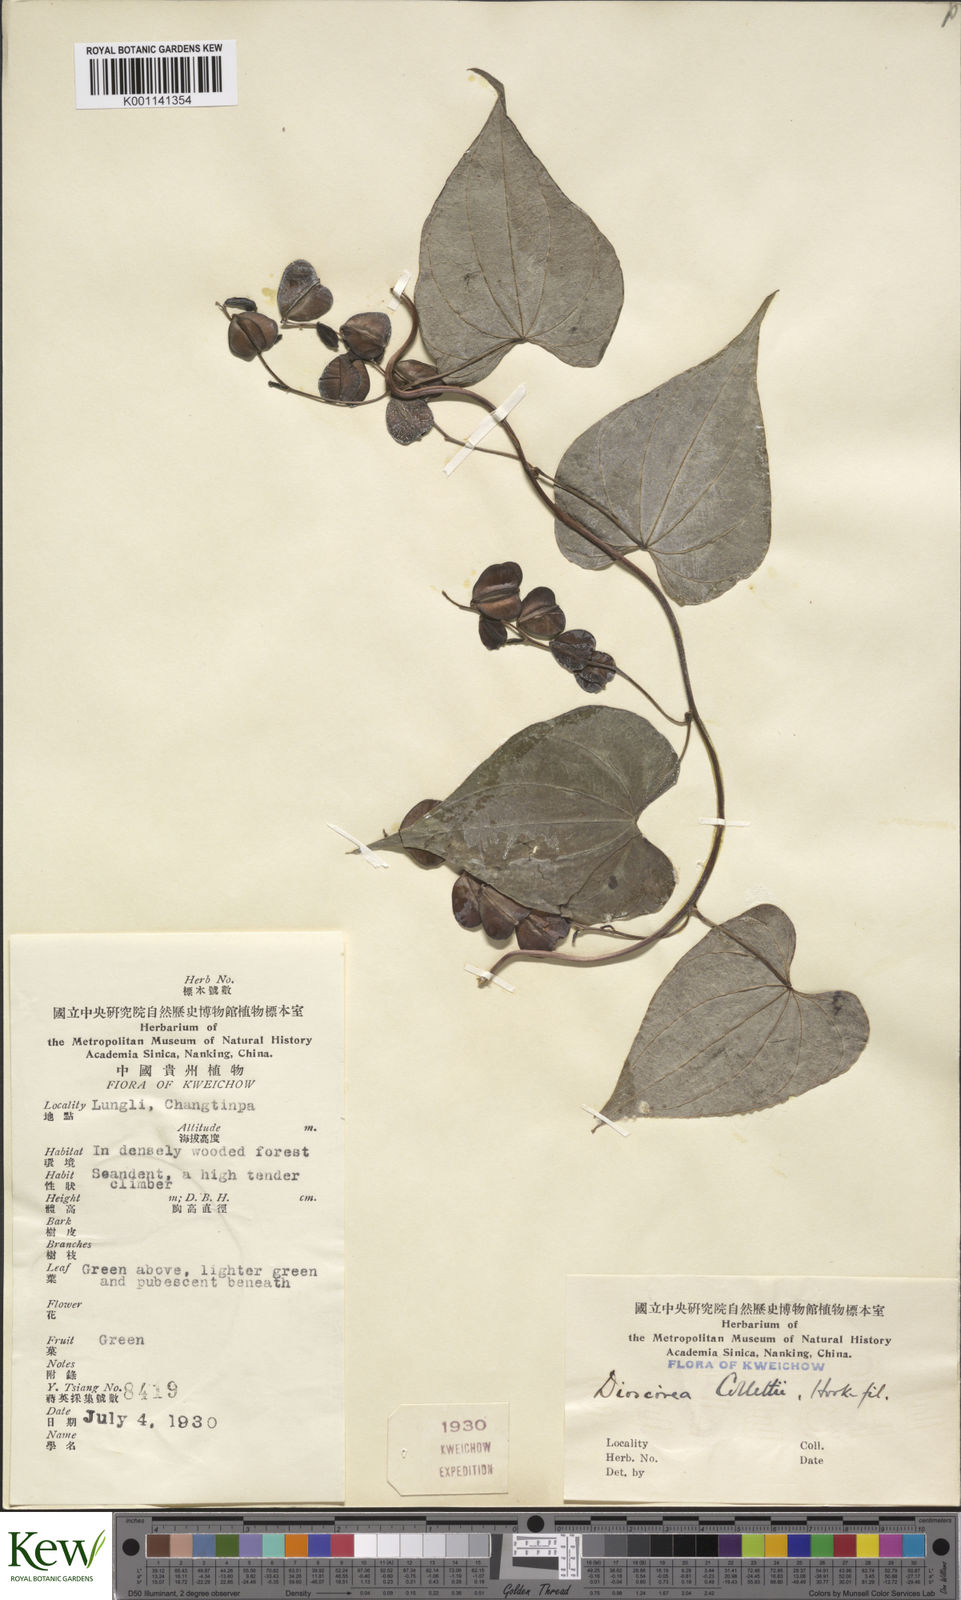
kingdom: Plantae
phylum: Tracheophyta
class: Liliopsida
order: Dioscoreales
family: Dioscoreaceae
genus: Dioscorea
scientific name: Dioscorea collettii
